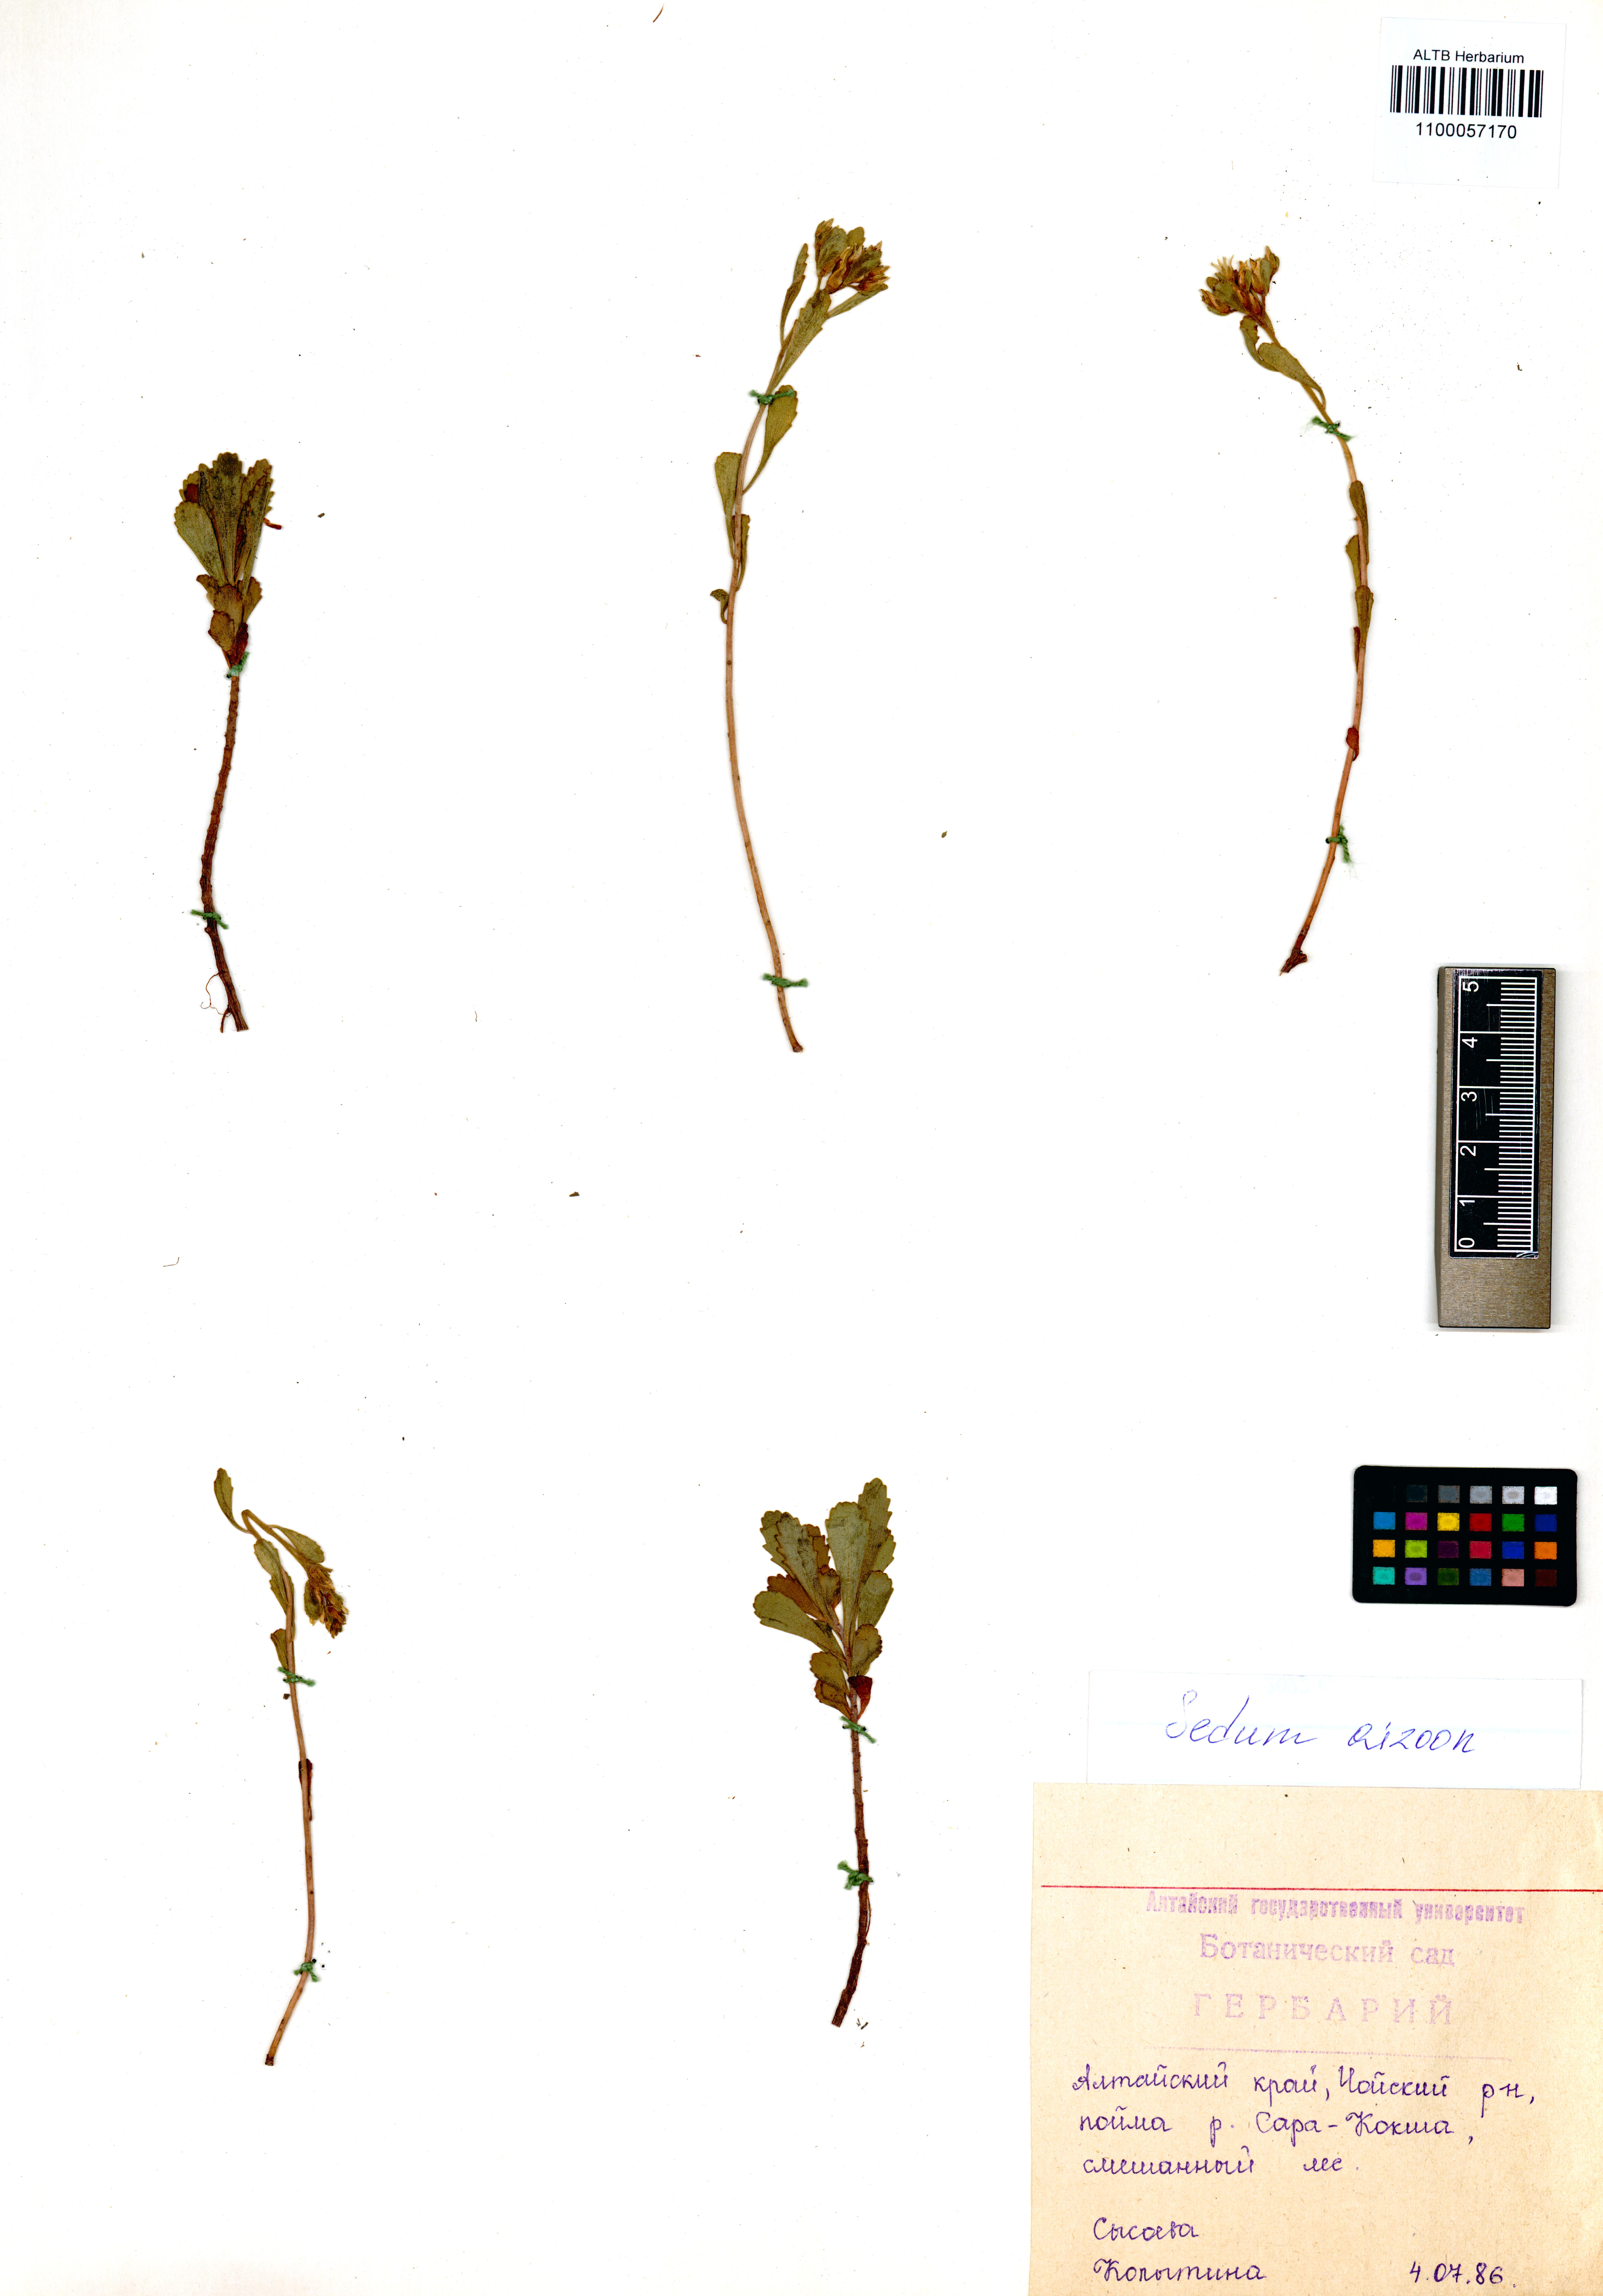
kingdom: Plantae
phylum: Tracheophyta
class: Magnoliopsida
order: Saxifragales
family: Crassulaceae
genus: Phedimus
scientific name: Phedimus aizoon
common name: Orpin aizoon
